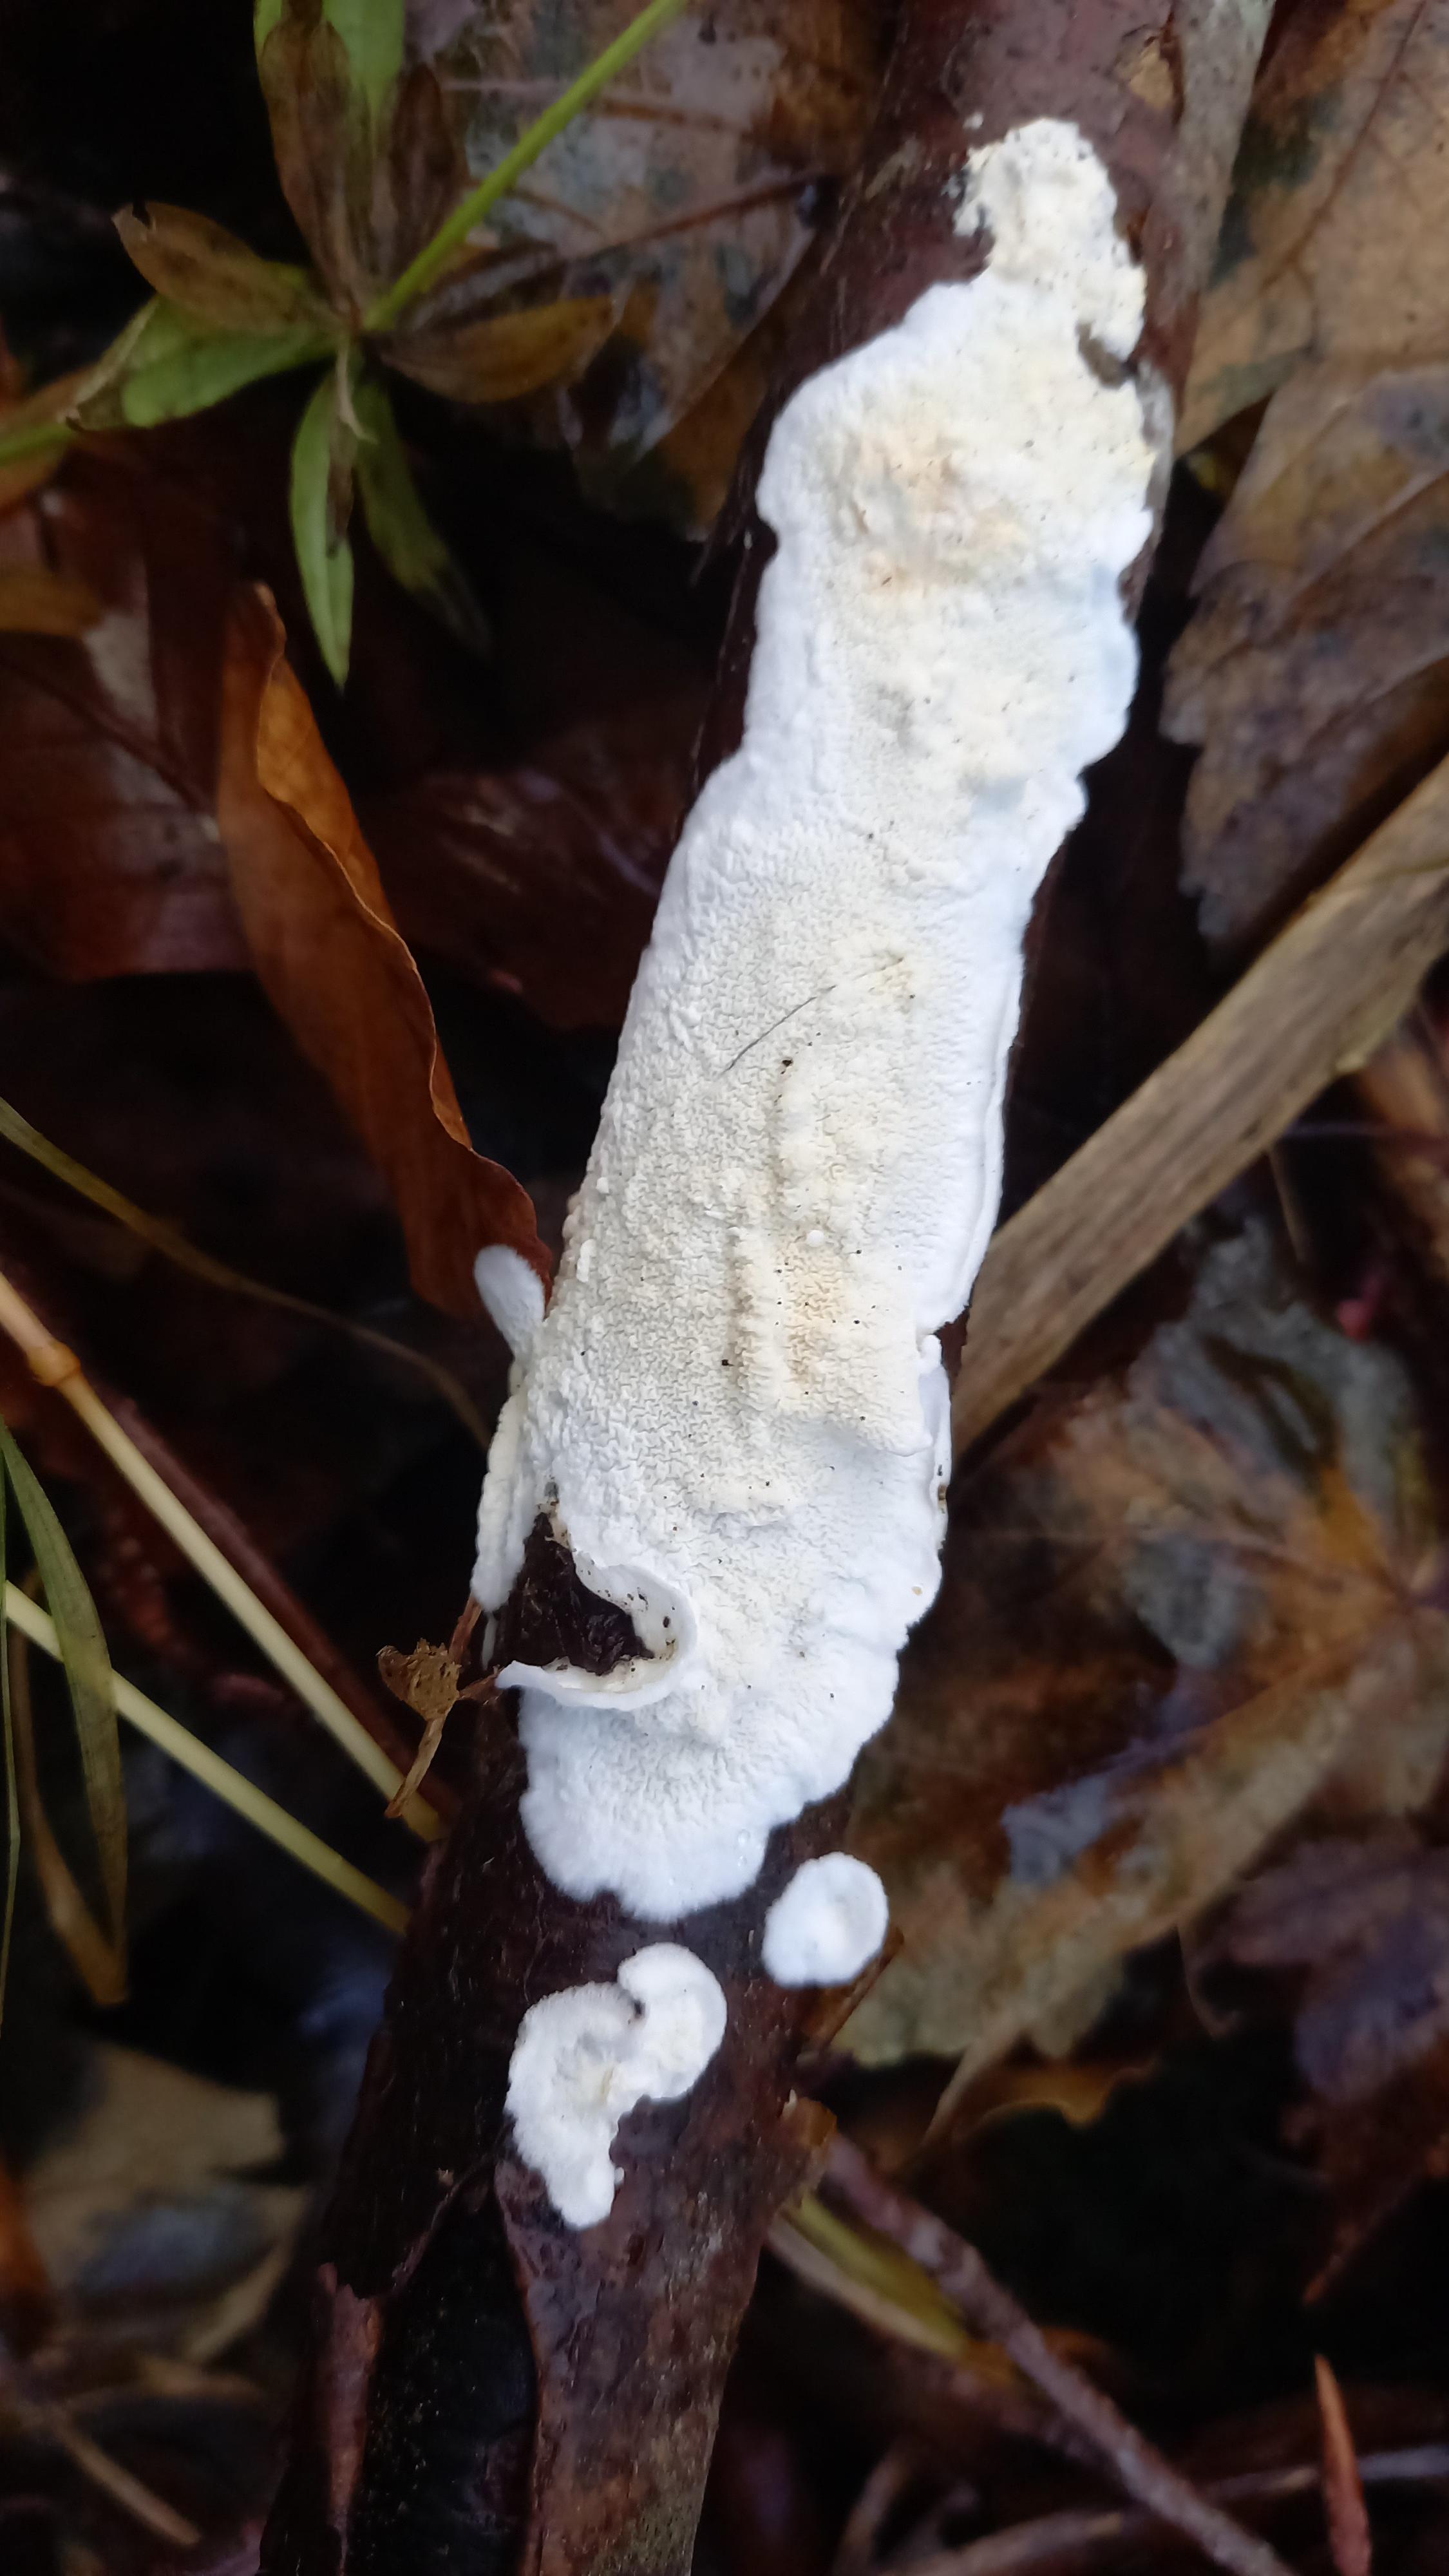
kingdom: Fungi
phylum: Basidiomycota
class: Agaricomycetes
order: Polyporales
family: Irpicaceae
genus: Byssomerulius
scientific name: Byssomerulius corium
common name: læder-åresvamp
